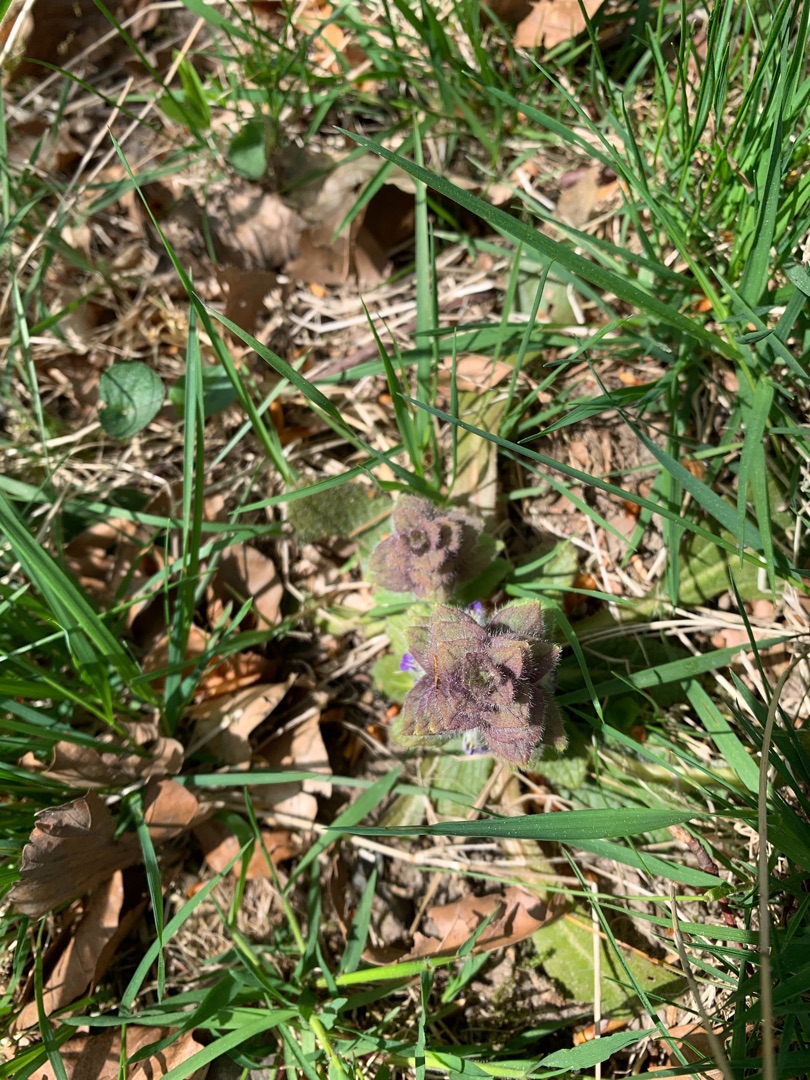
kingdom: Plantae
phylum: Tracheophyta
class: Magnoliopsida
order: Lamiales
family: Lamiaceae
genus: Ajuga
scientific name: Ajuga pyramidalis
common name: Pyramide-læbeløs
